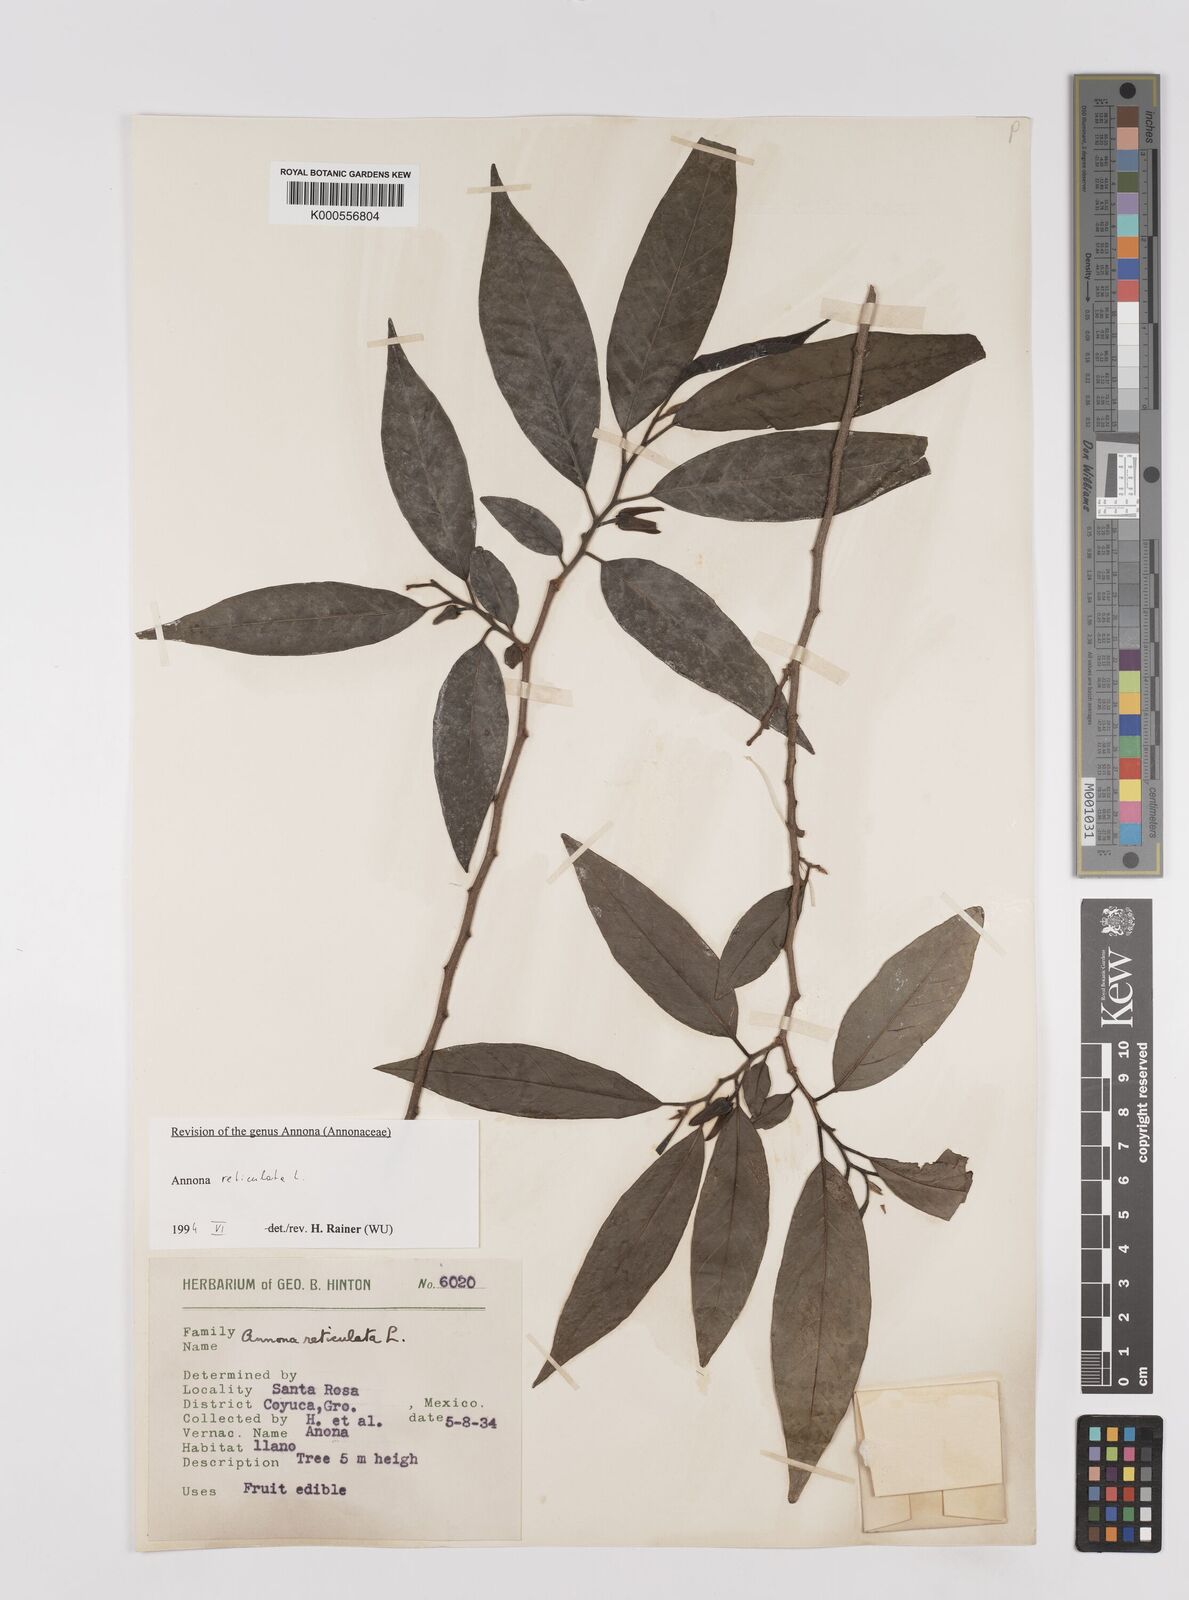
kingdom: Plantae
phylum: Tracheophyta
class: Magnoliopsida
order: Magnoliales
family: Annonaceae
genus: Annona
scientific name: Annona reticulata
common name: Custard apple
